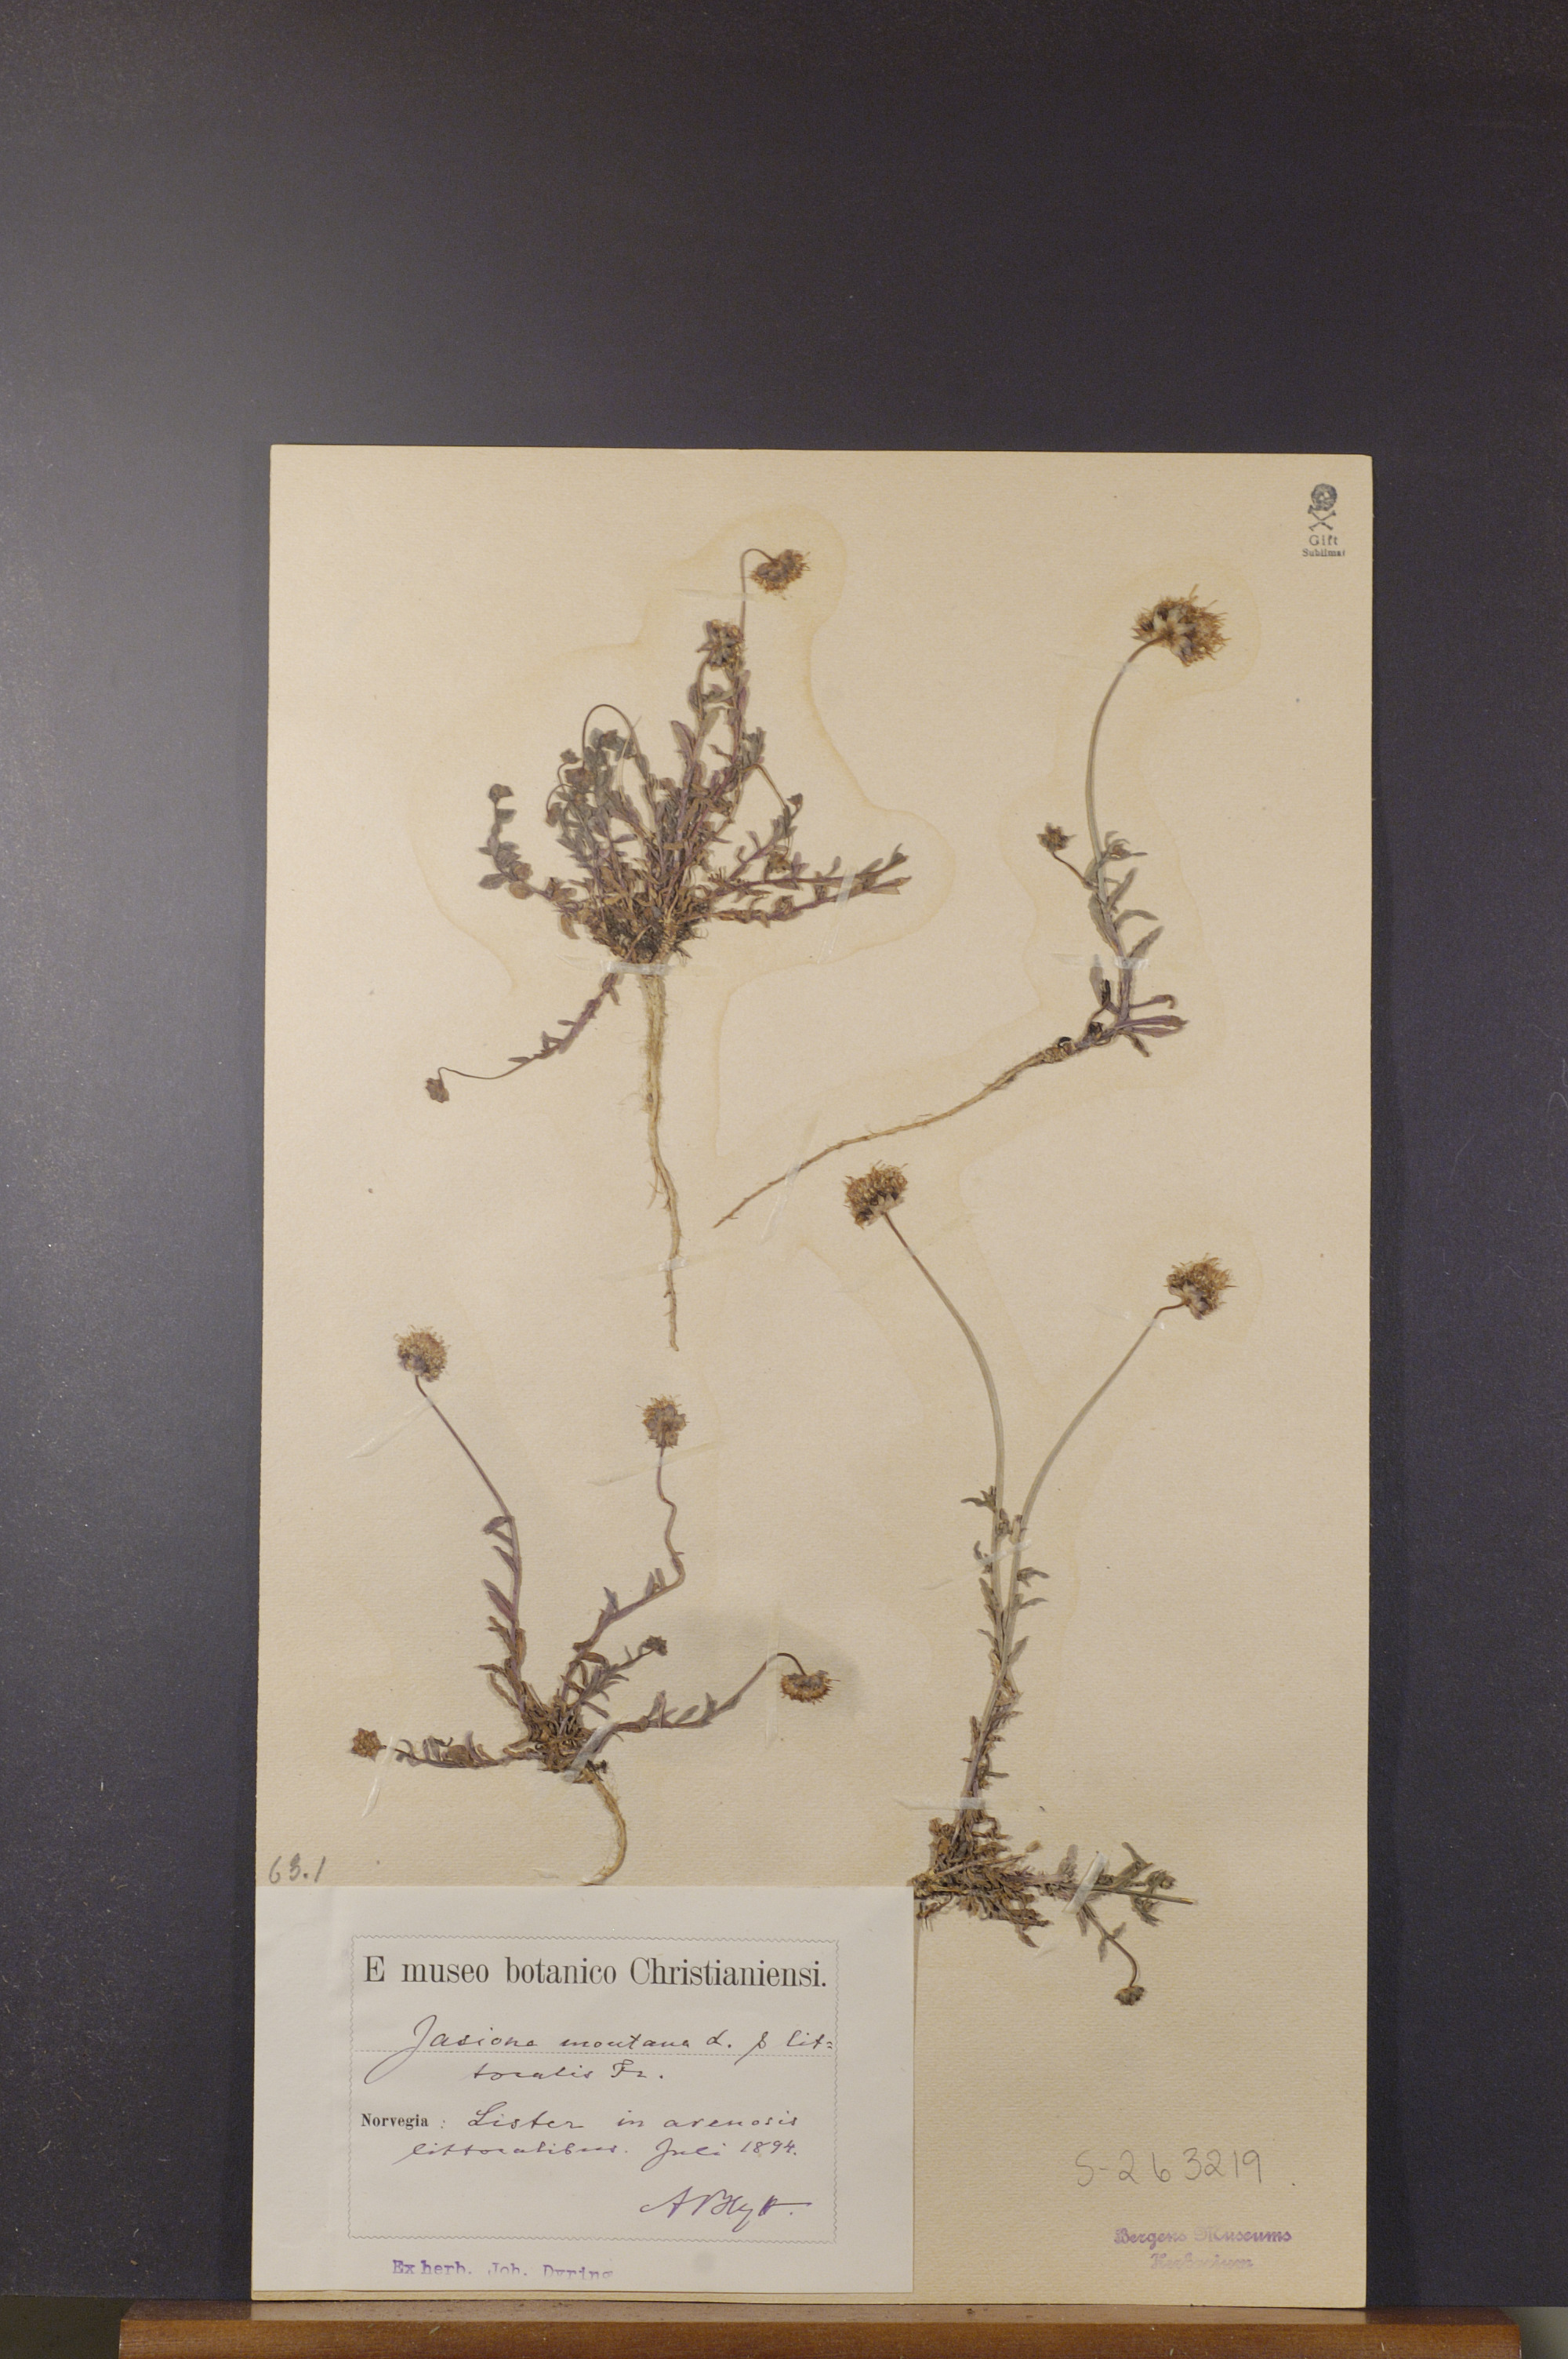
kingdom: Plantae
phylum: Tracheophyta
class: Magnoliopsida
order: Asterales
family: Campanulaceae
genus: Jasione
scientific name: Jasione montana
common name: Sheep's-bit
